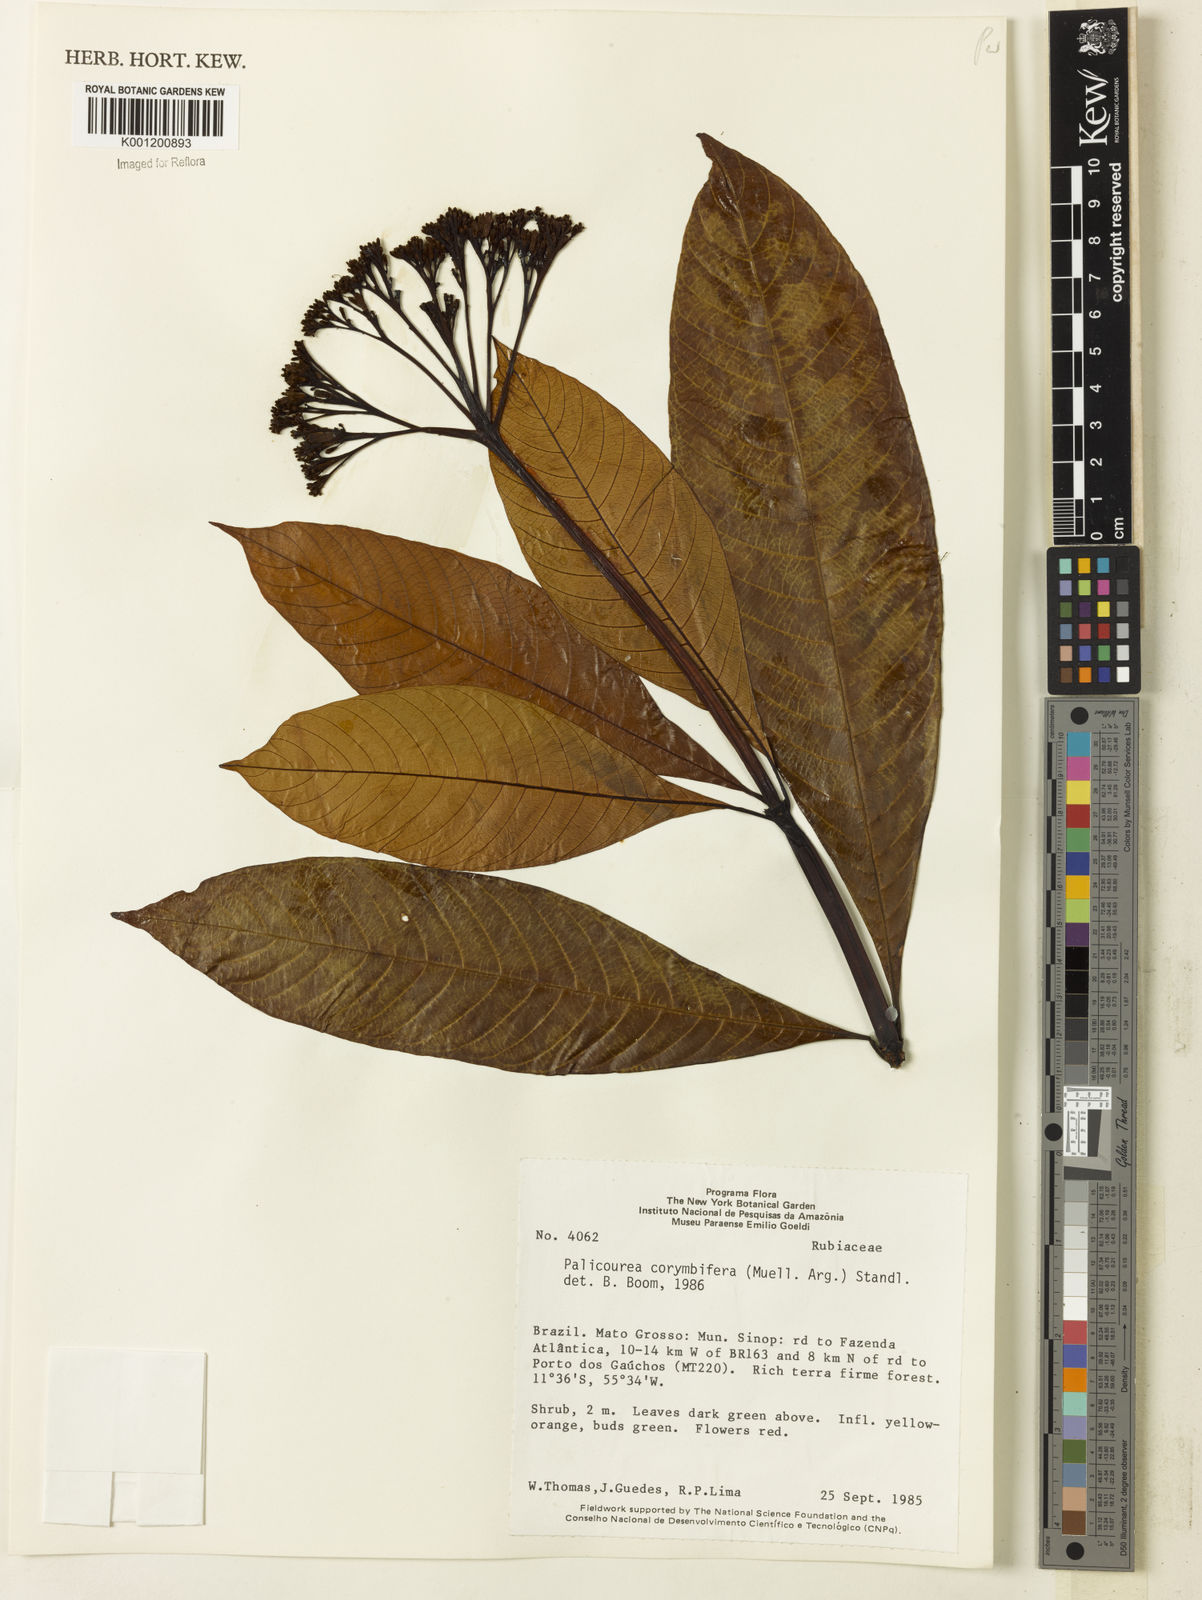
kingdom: Plantae
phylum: Tracheophyta
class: Magnoliopsida
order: Gentianales
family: Rubiaceae
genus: Palicourea
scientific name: Palicourea
